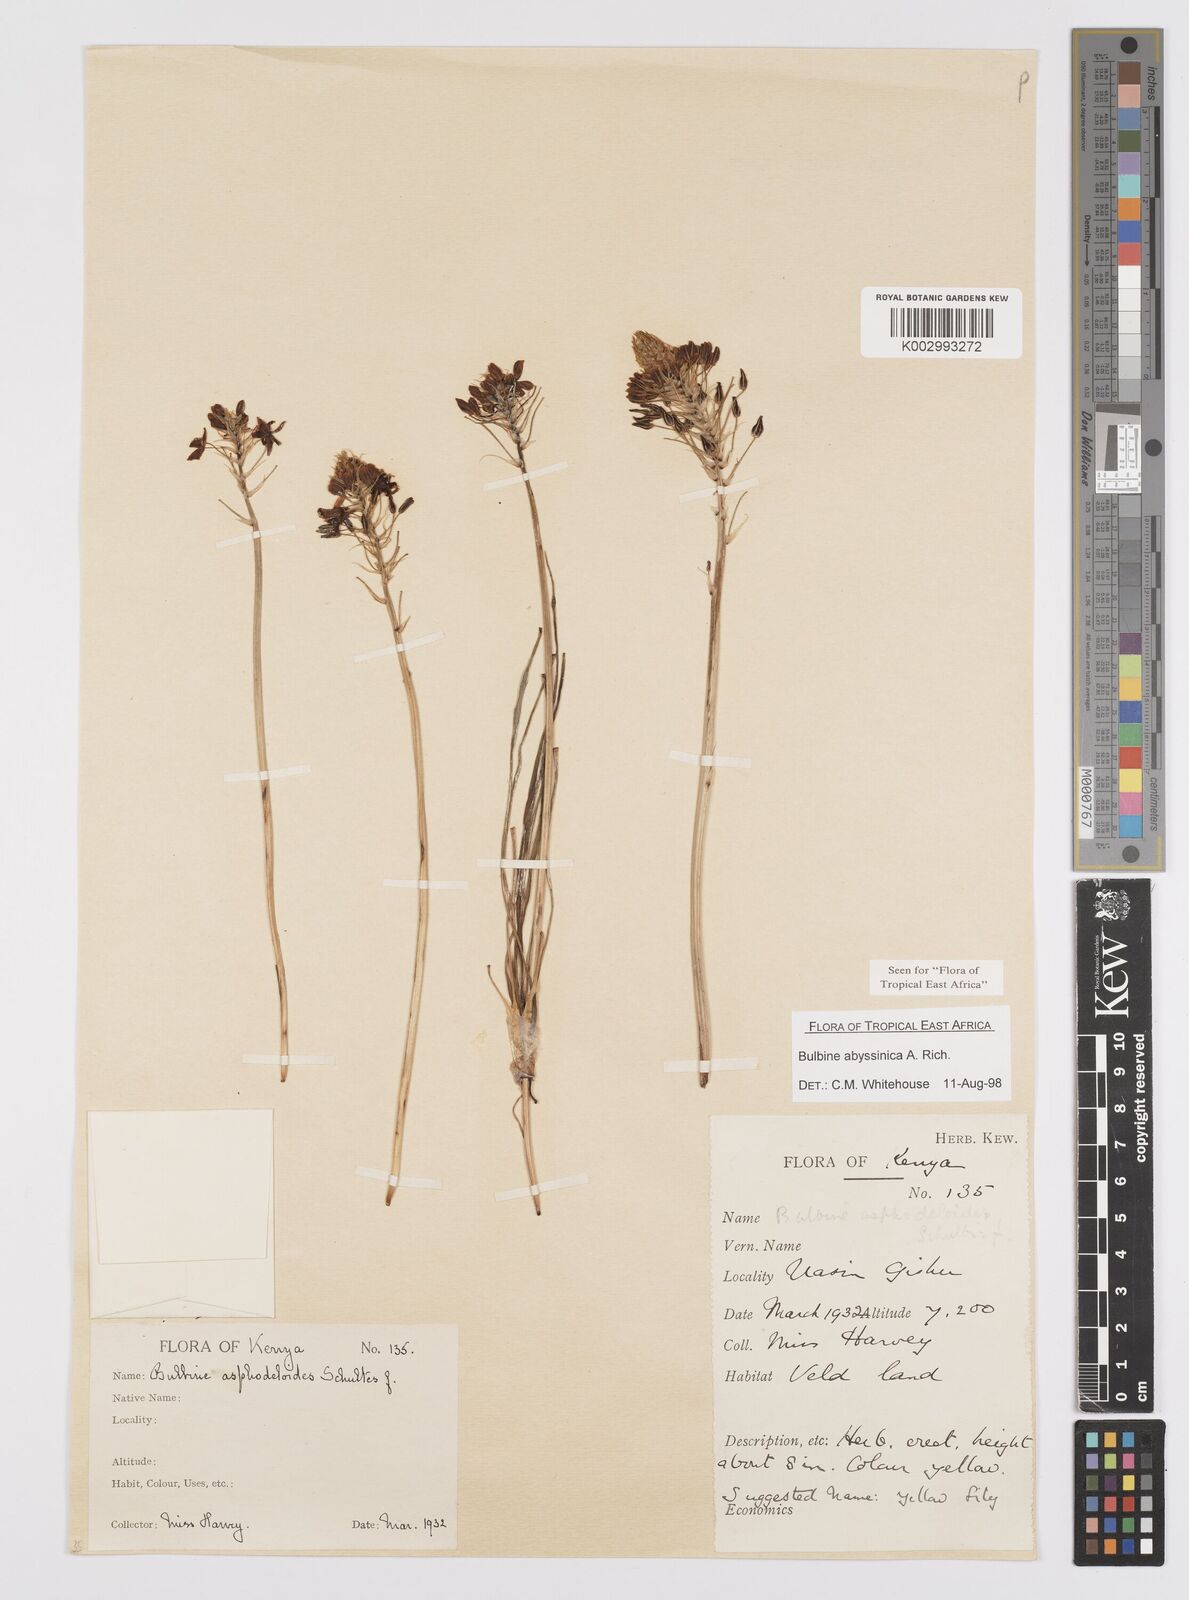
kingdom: Plantae
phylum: Tracheophyta
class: Liliopsida
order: Asparagales
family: Asphodelaceae
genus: Bulbine
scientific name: Bulbine abyssinica
